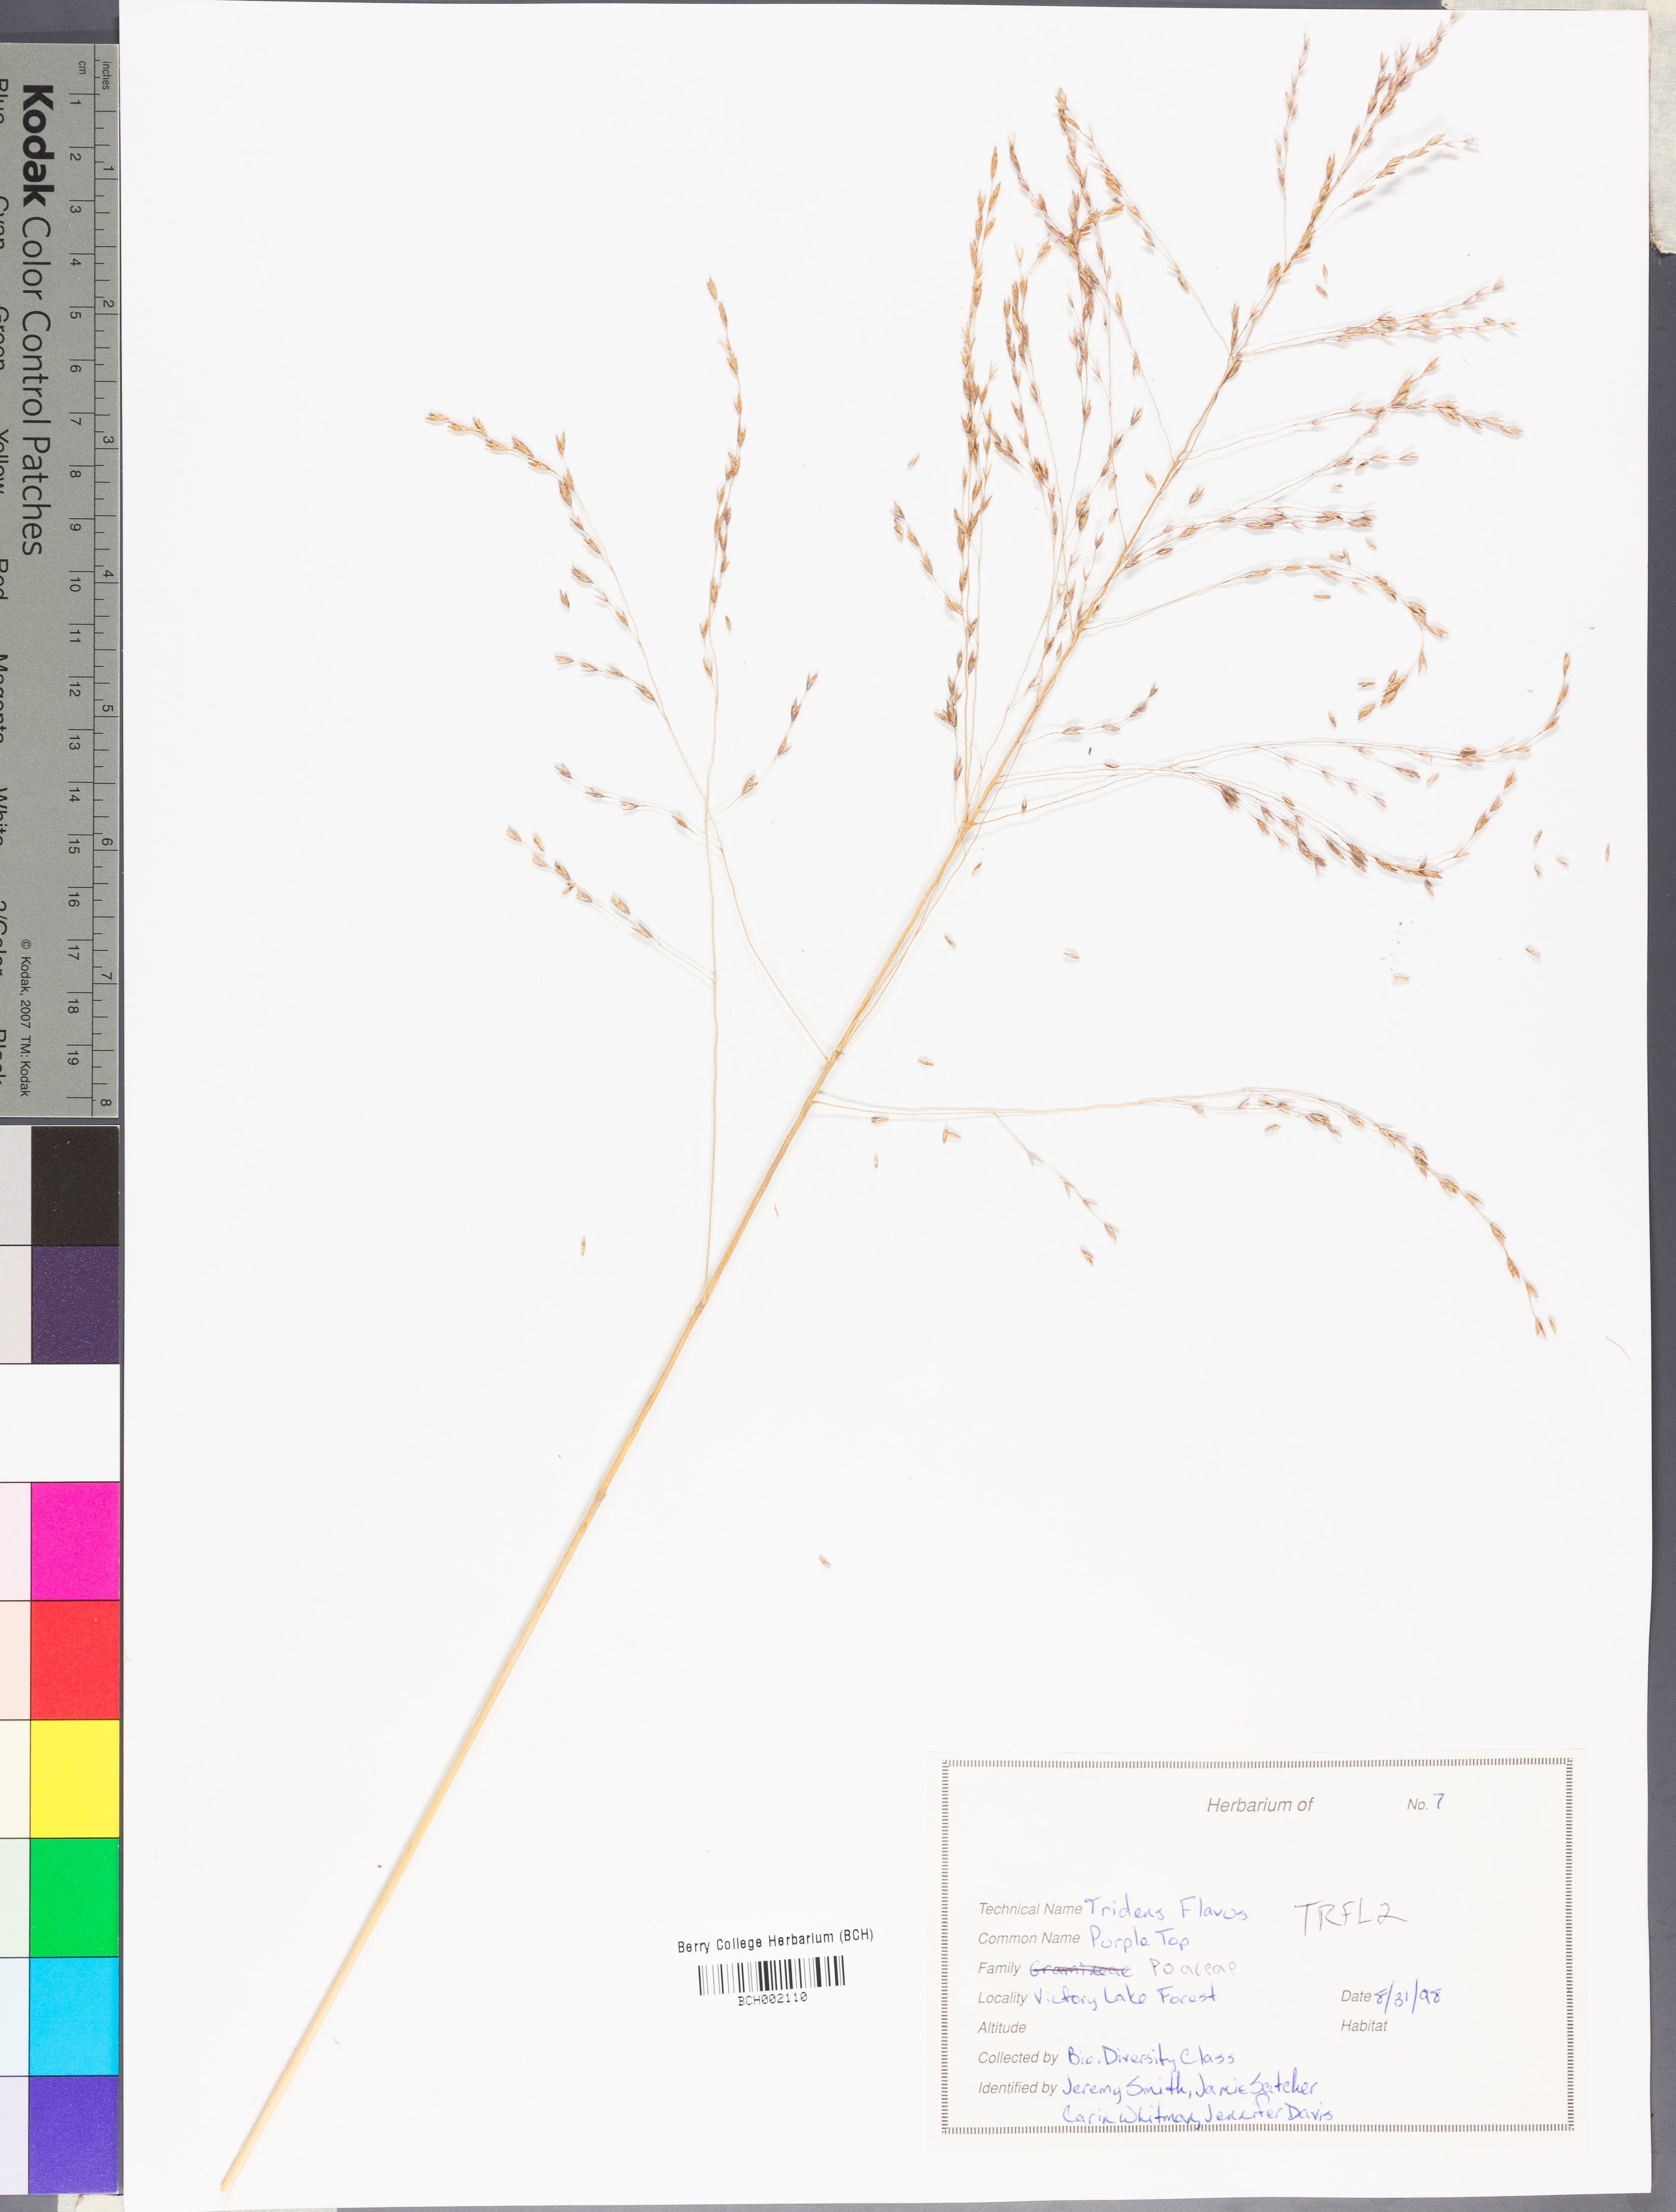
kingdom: Plantae
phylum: Tracheophyta
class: Liliopsida
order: Poales
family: Poaceae
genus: Tridens
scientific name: Tridens flavus
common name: Purpletop
